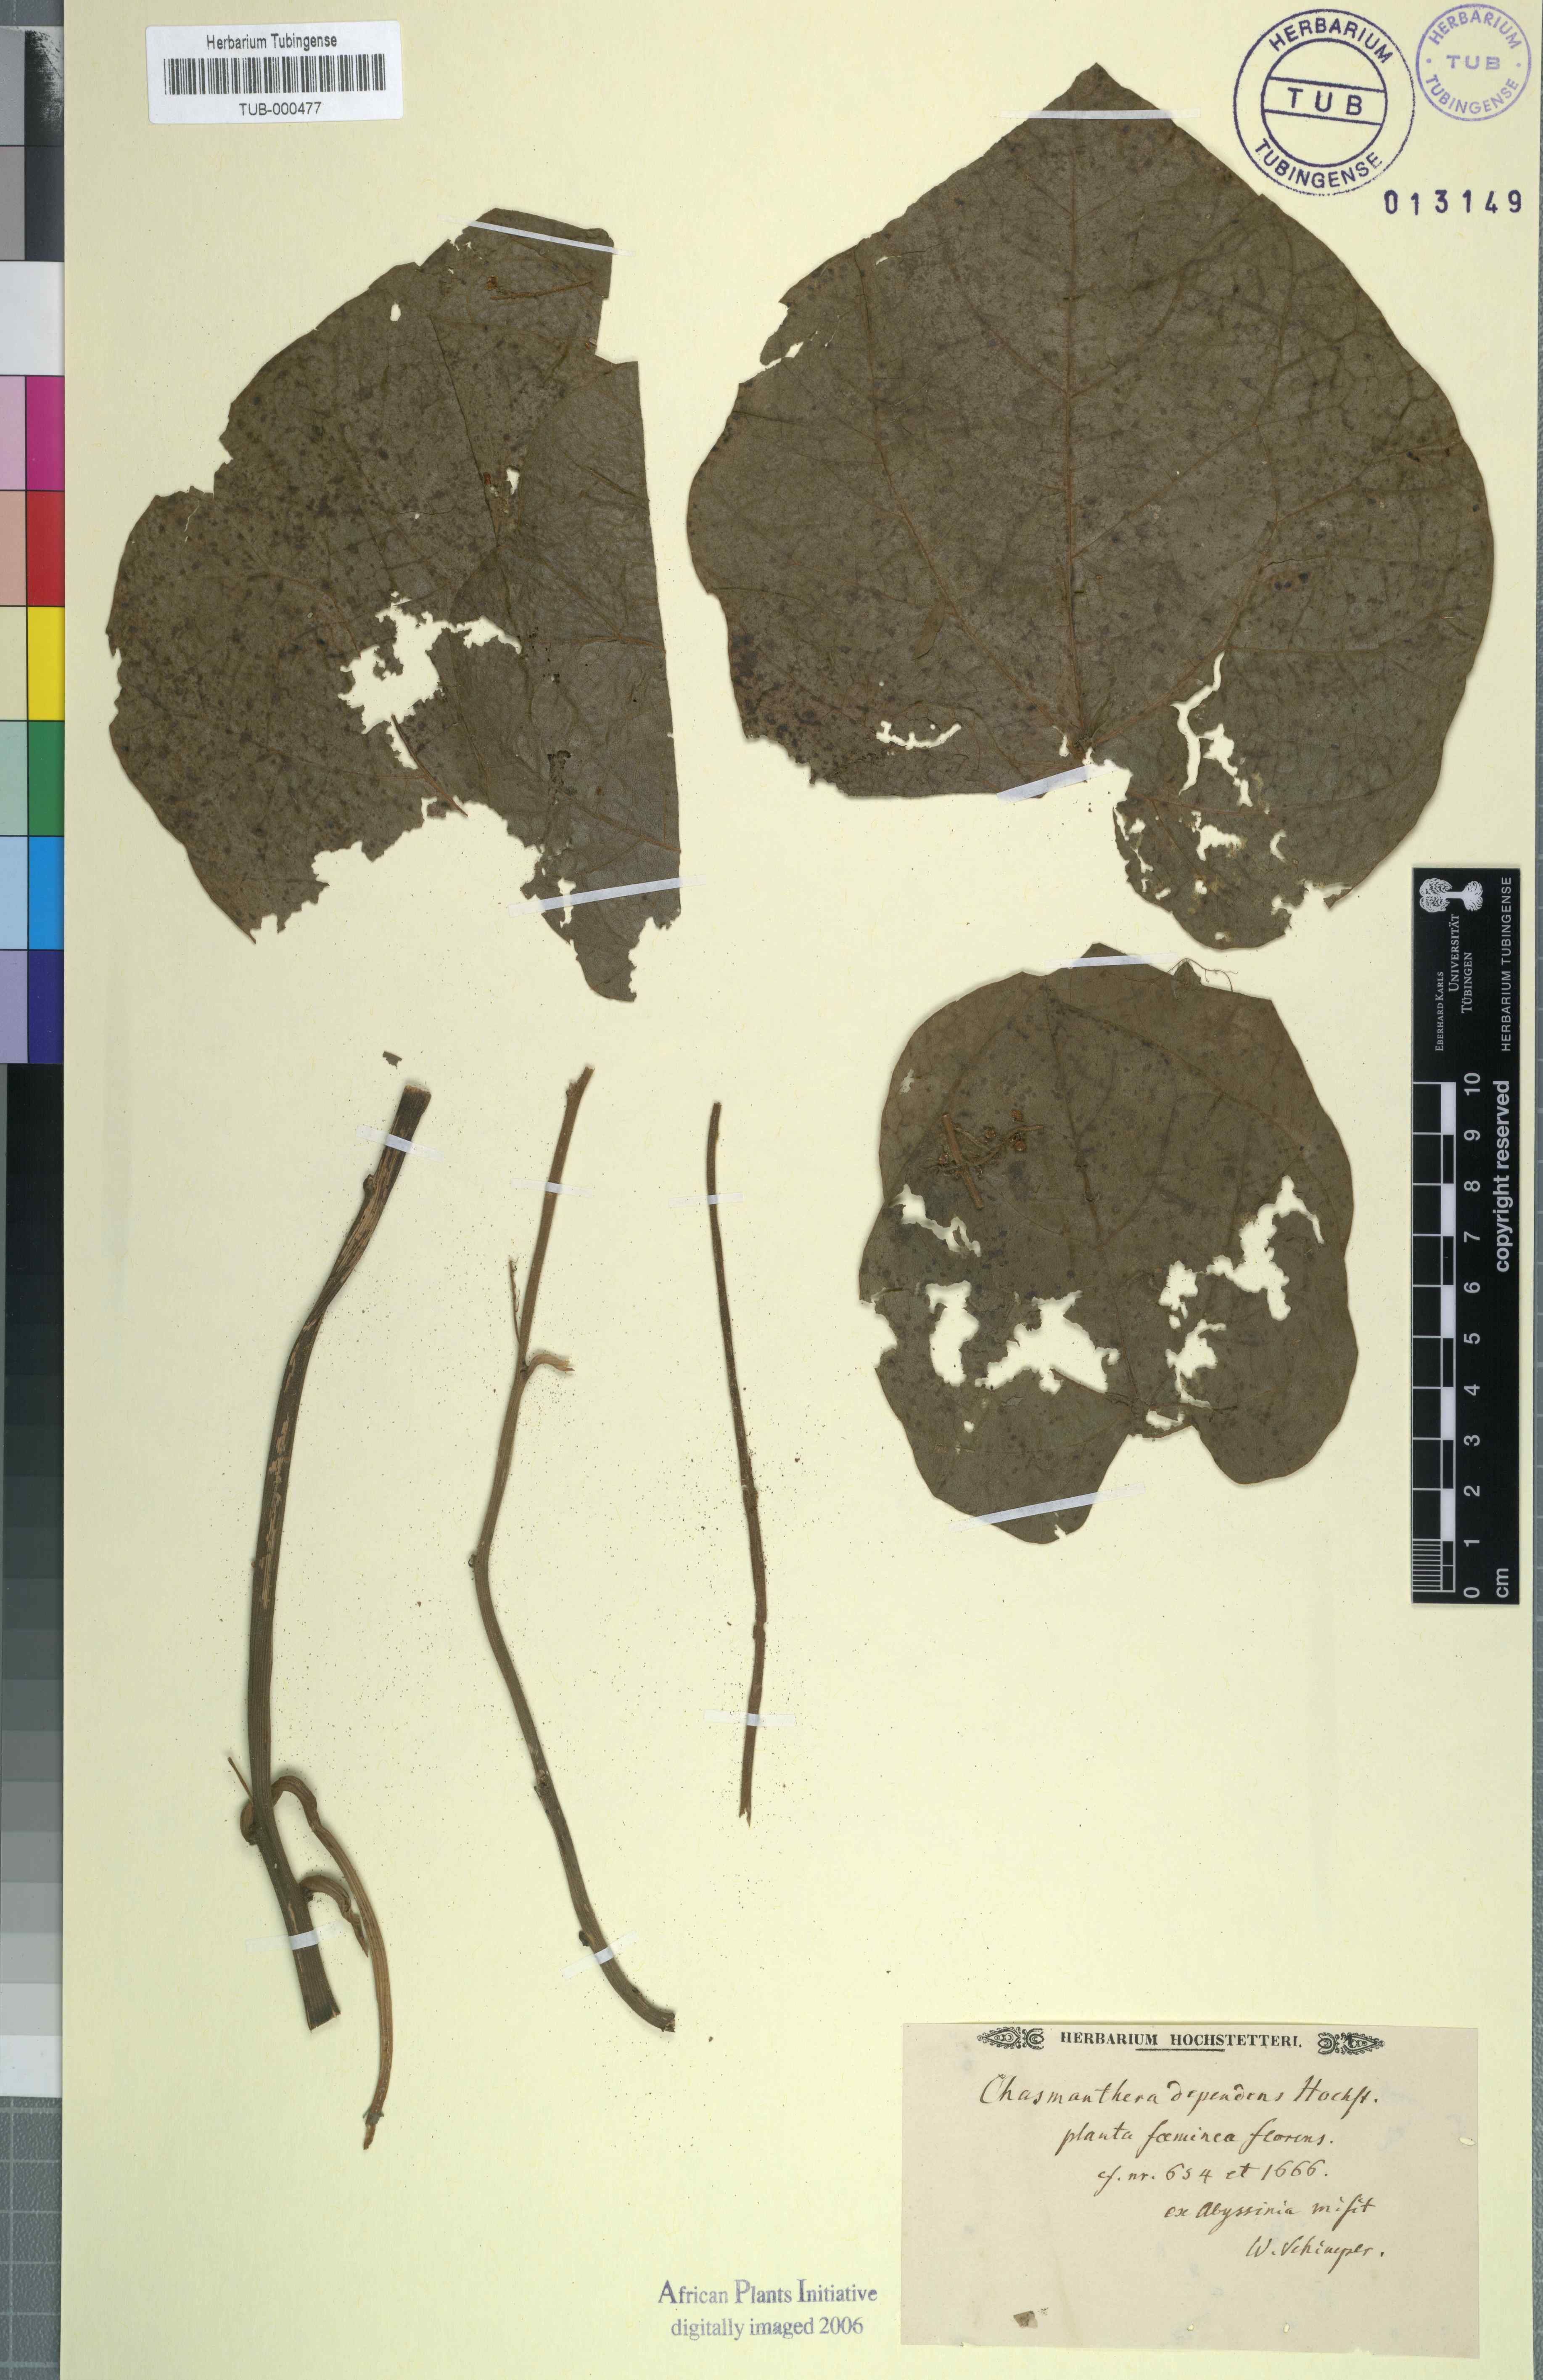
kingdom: Plantae
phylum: Tracheophyta
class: Magnoliopsida
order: Ranunculales
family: Menispermaceae
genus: Chasmanthera
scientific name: Chasmanthera dependens
